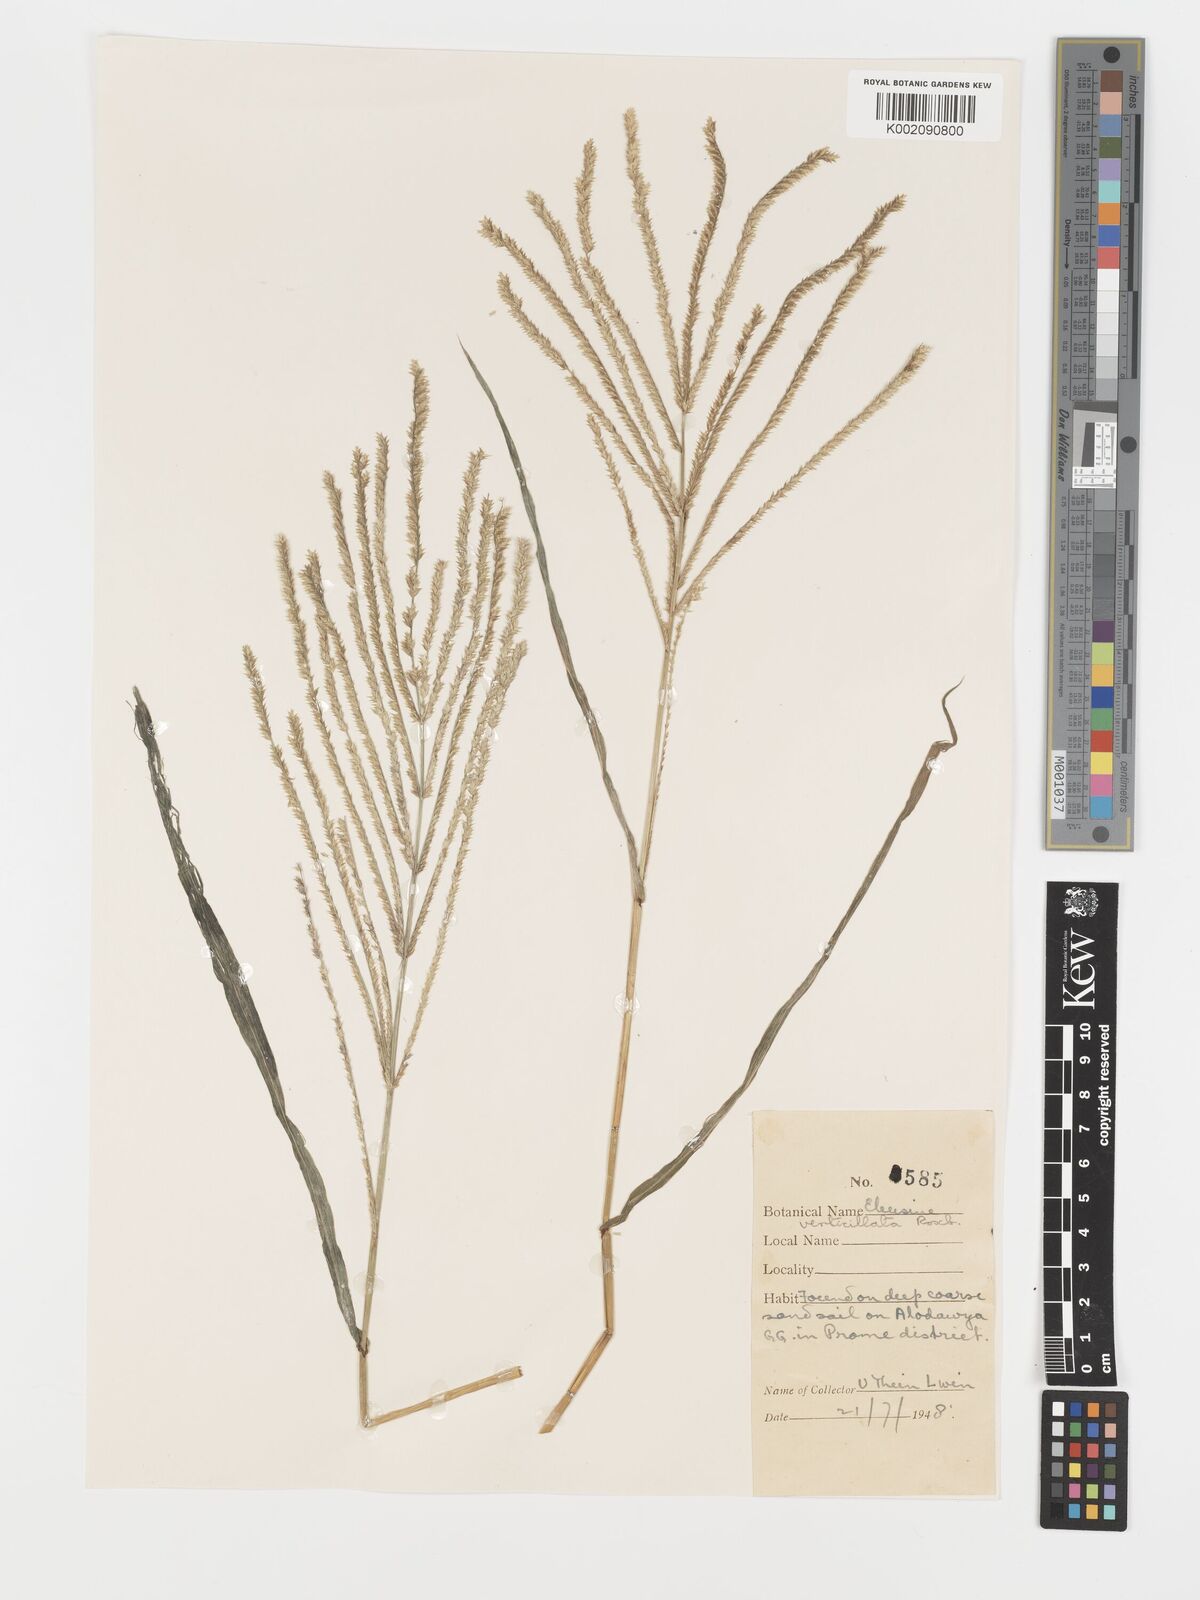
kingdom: Plantae
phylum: Tracheophyta
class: Liliopsida
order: Poales
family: Poaceae
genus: Acrachne
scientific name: Acrachne racemosa
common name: Goosegrass
